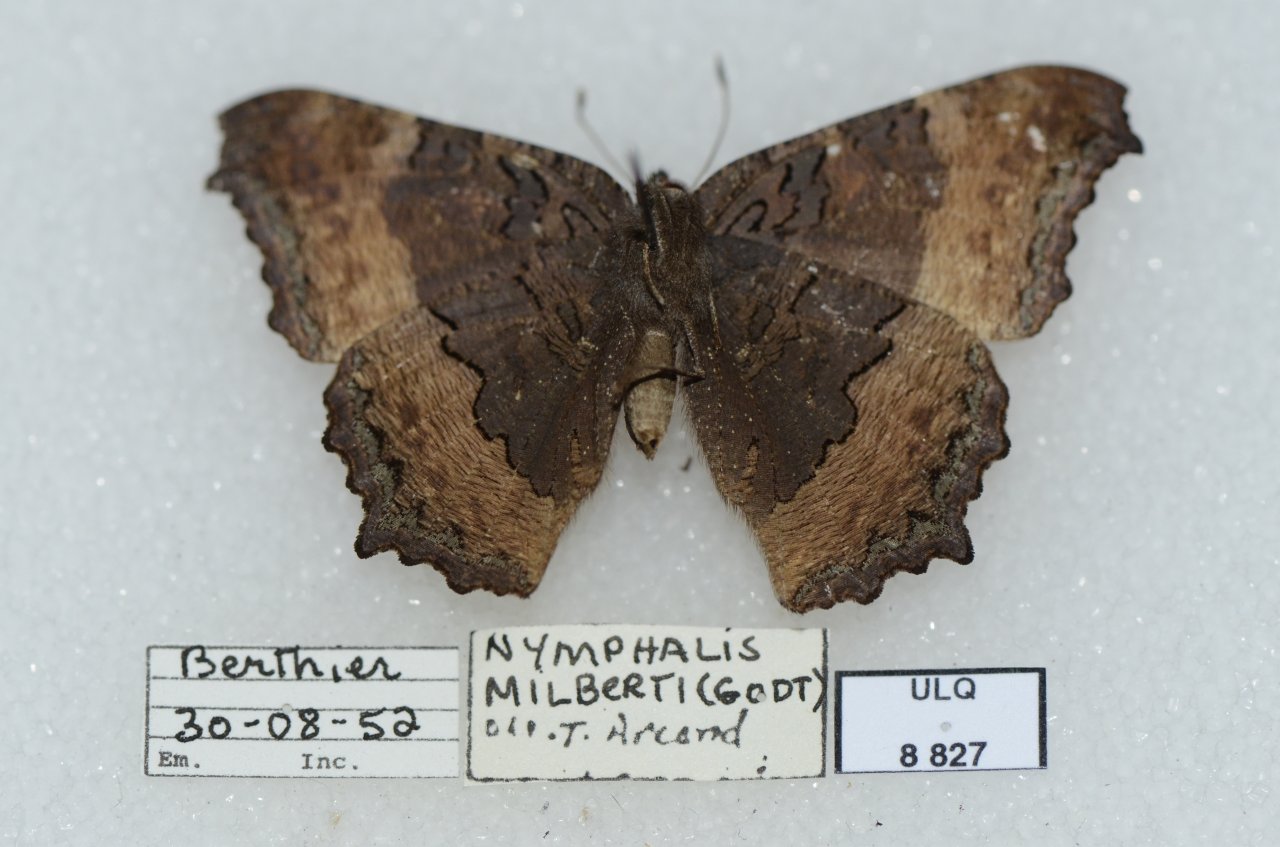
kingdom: Animalia
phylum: Arthropoda
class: Insecta
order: Lepidoptera
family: Nymphalidae
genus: Aglais
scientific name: Aglais milberti
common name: Milbert's Tortoiseshell
